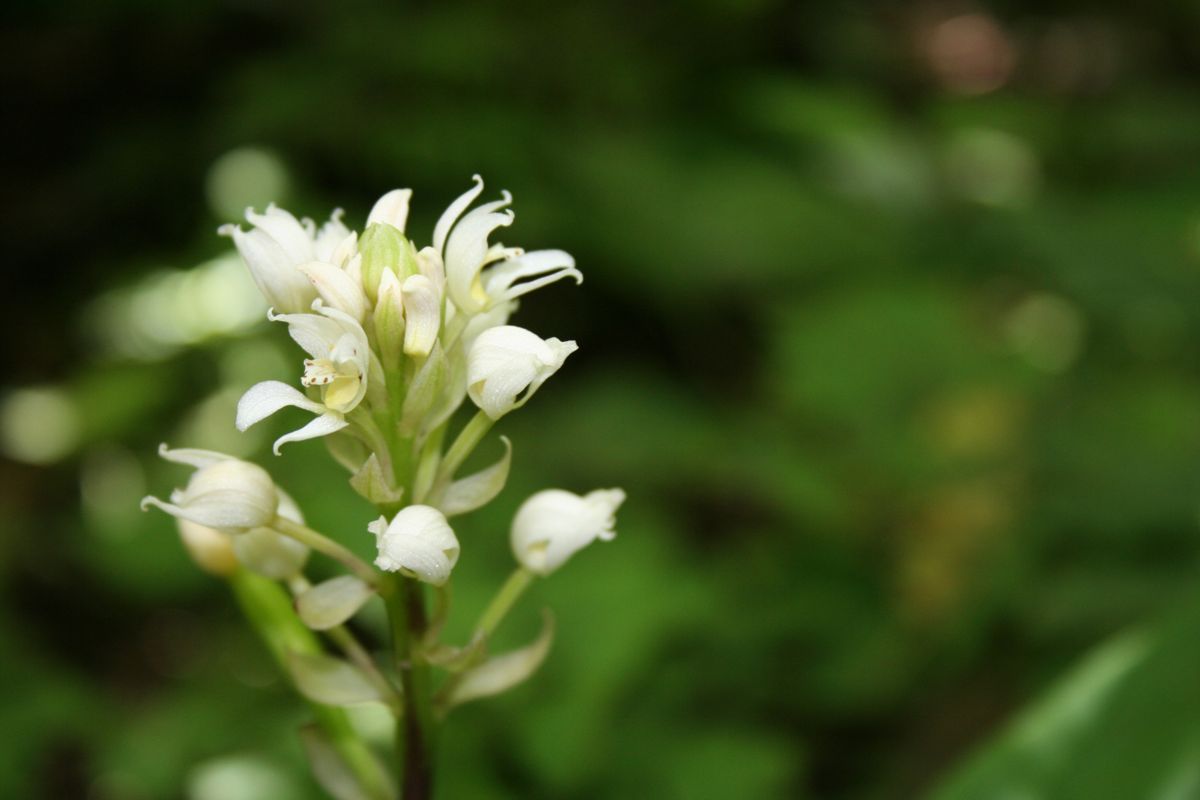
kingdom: Plantae
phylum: Tracheophyta
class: Liliopsida
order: Asparagales
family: Orchidaceae
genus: Govenia
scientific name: Govenia alba
